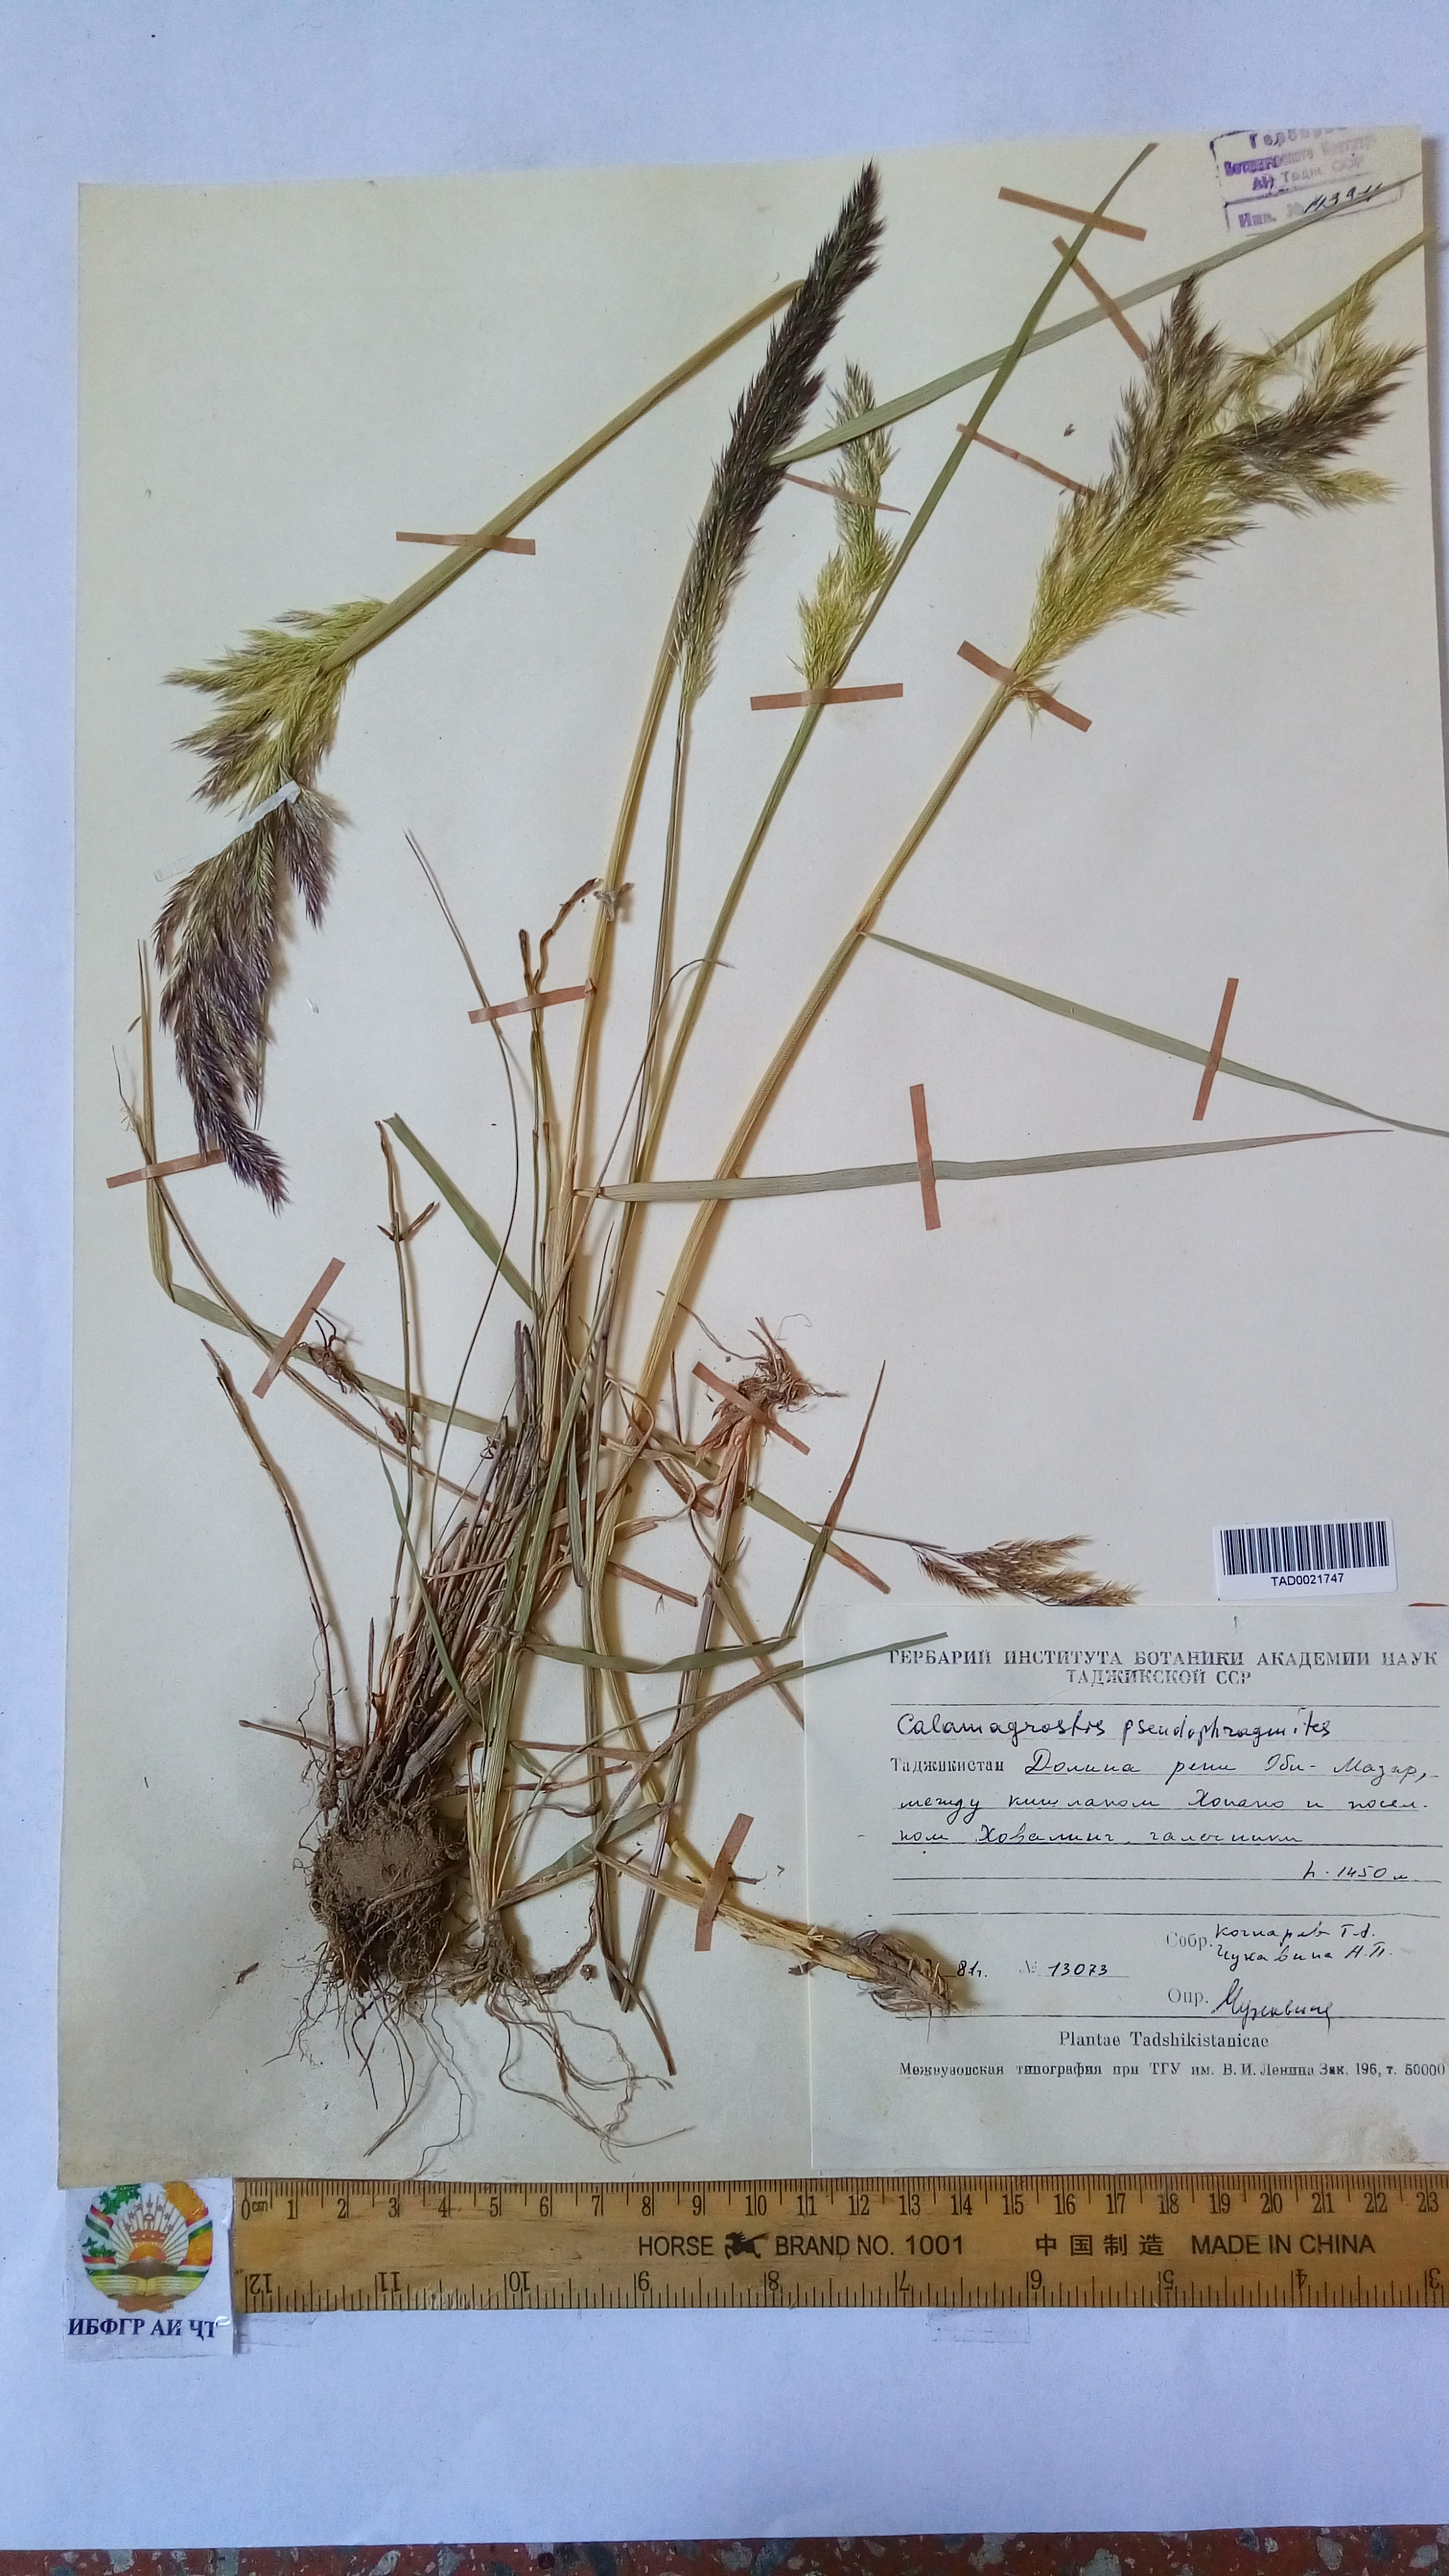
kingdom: Plantae
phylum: Tracheophyta
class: Liliopsida
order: Poales
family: Poaceae
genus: Calamagrostis
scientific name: Calamagrostis pseudophragmites
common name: Coastal small-reed
